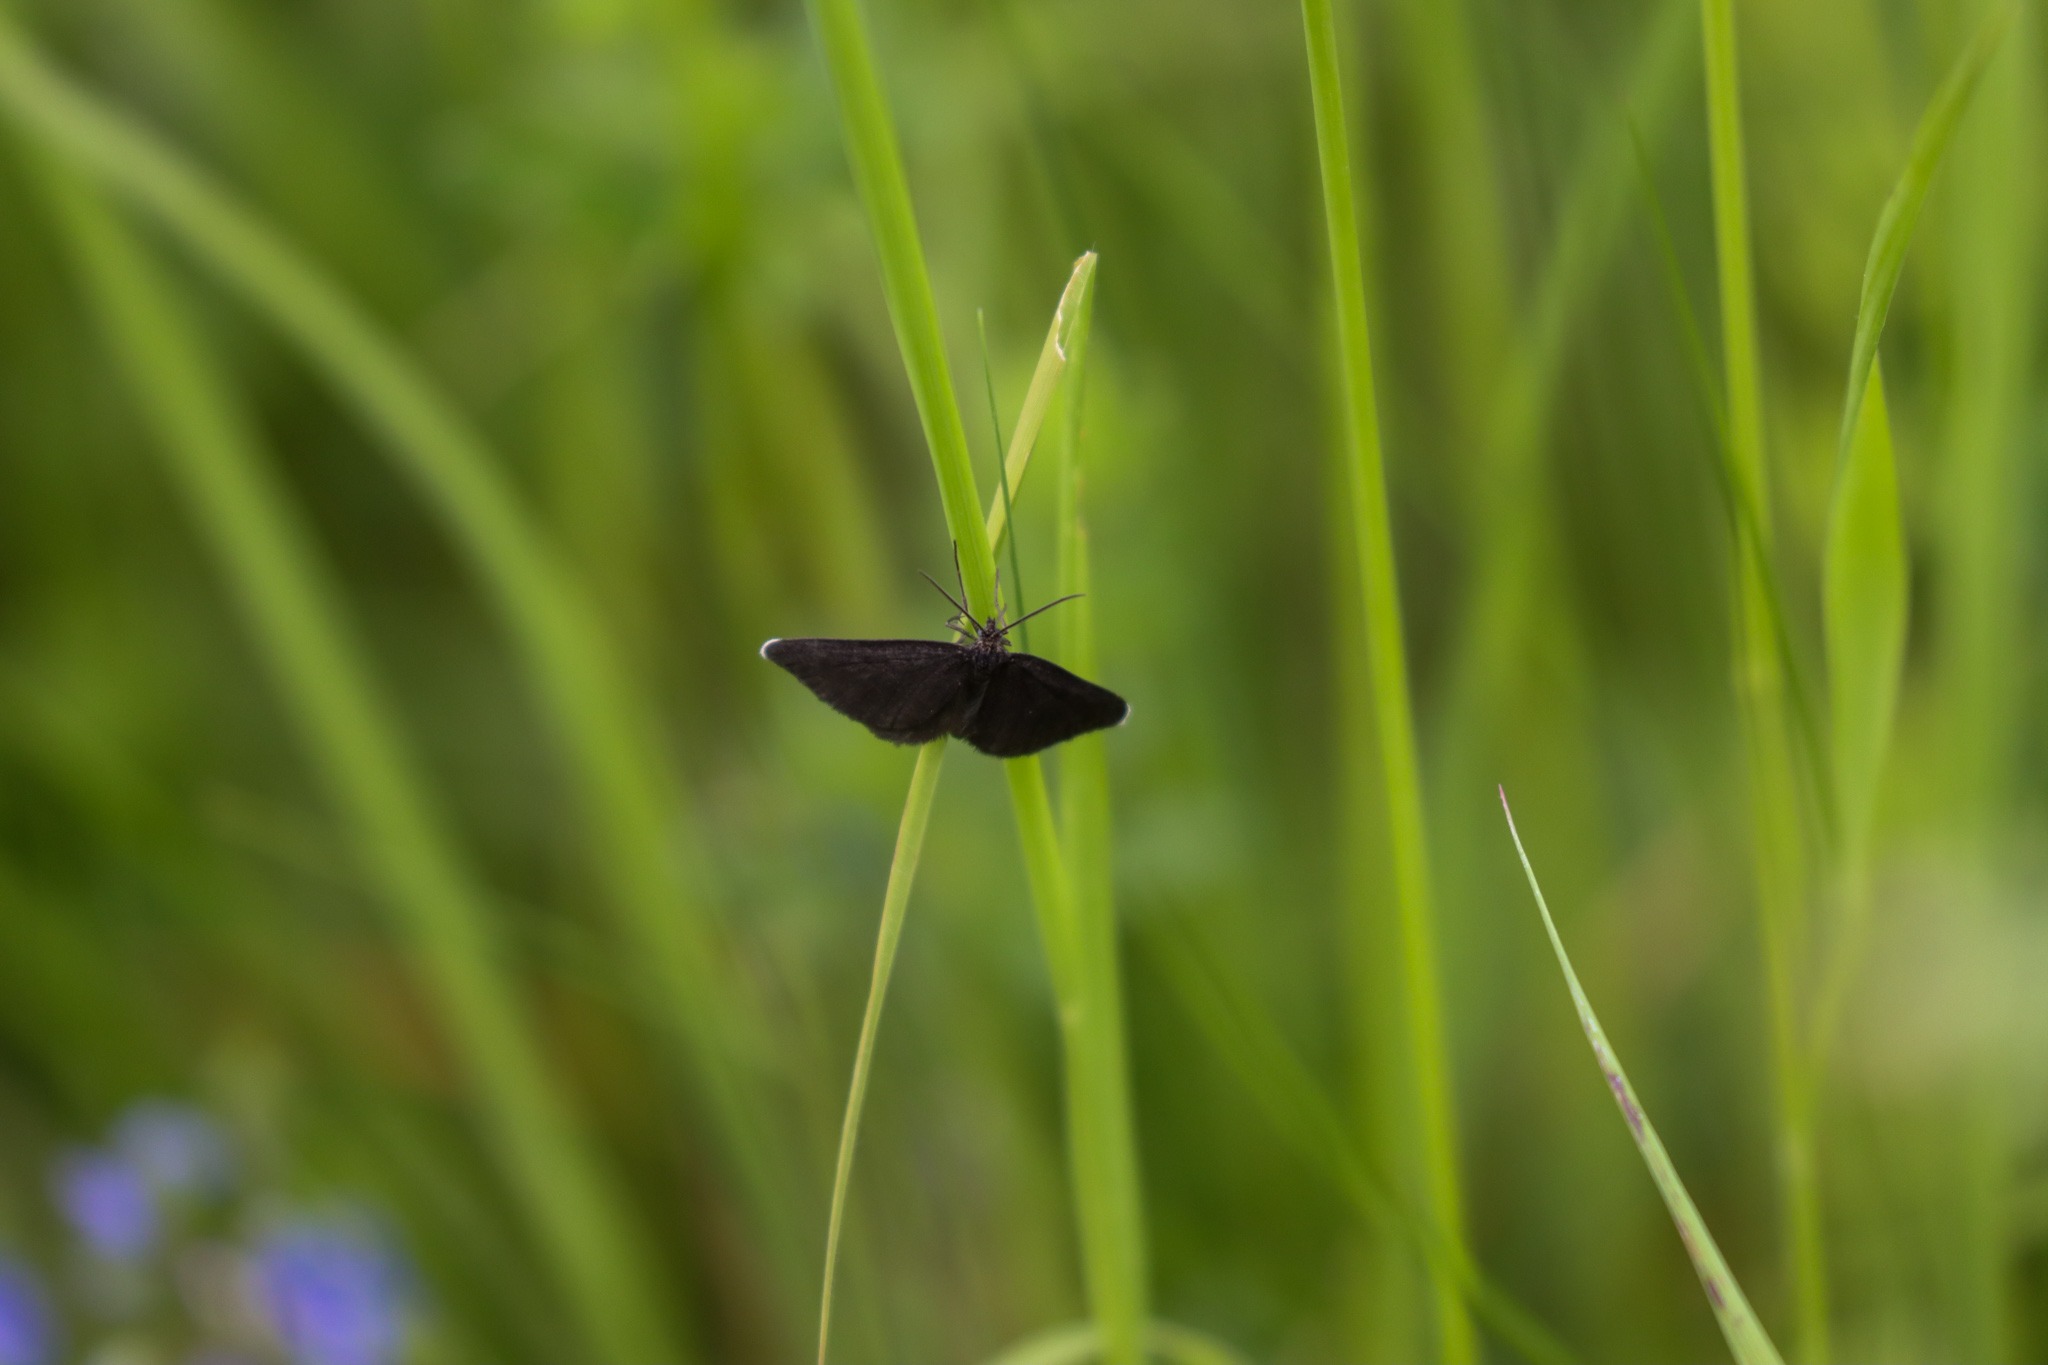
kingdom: Animalia
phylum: Arthropoda
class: Insecta
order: Lepidoptera
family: Geometridae
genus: Odezia
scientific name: Odezia atrata
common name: Sort måler
